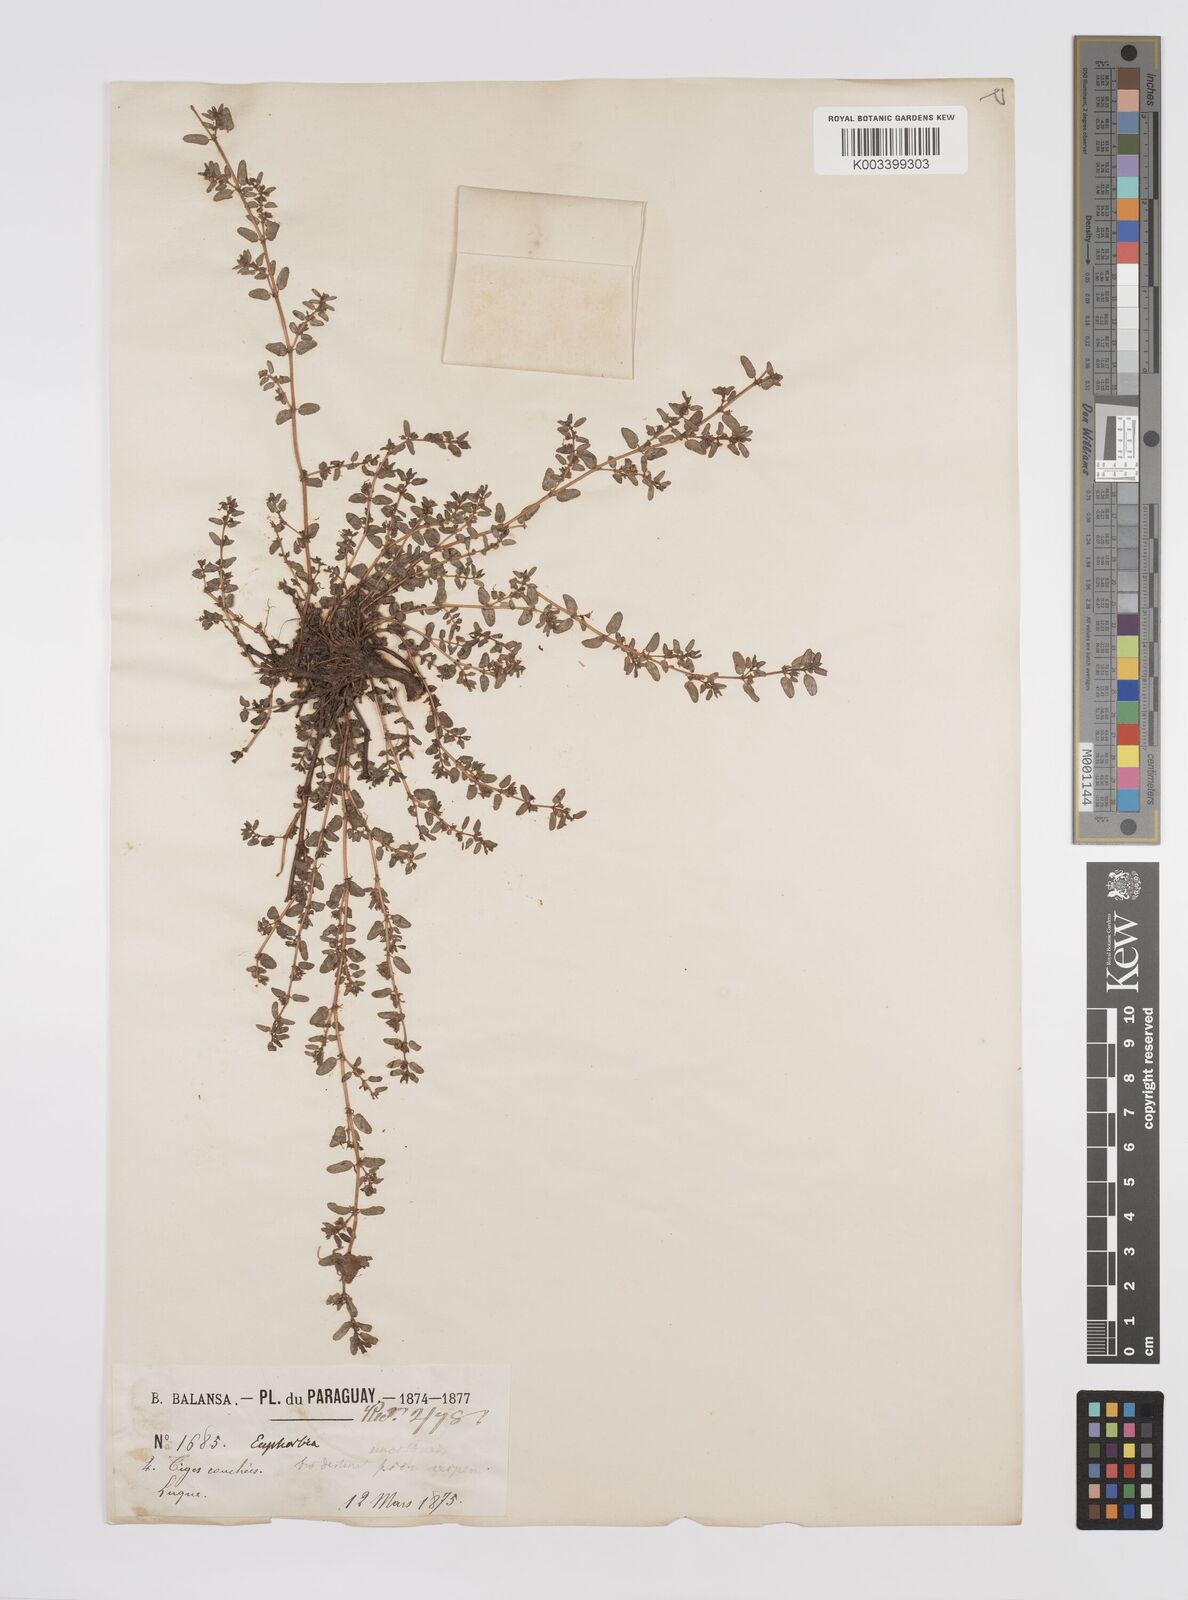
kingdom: Plantae
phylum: Tracheophyta
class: Magnoliopsida
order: Malpighiales
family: Euphorbiaceae
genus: Euphorbia
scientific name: Euphorbia
